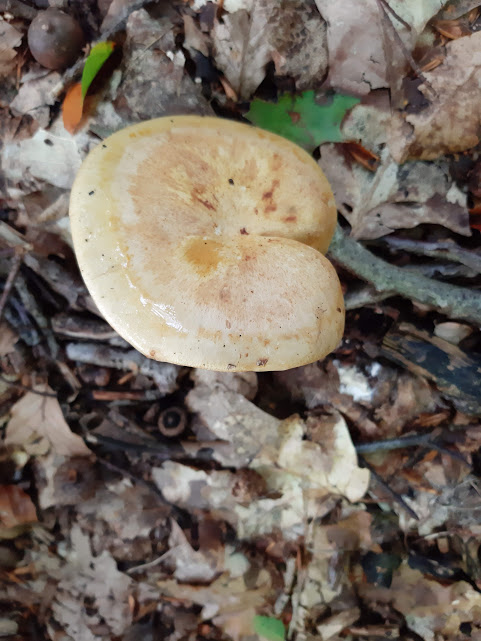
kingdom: Fungi
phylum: Basidiomycota
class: Agaricomycetes
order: Agaricales
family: Cortinariaceae
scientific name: Cortinariaceae
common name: slørhatfamilien
